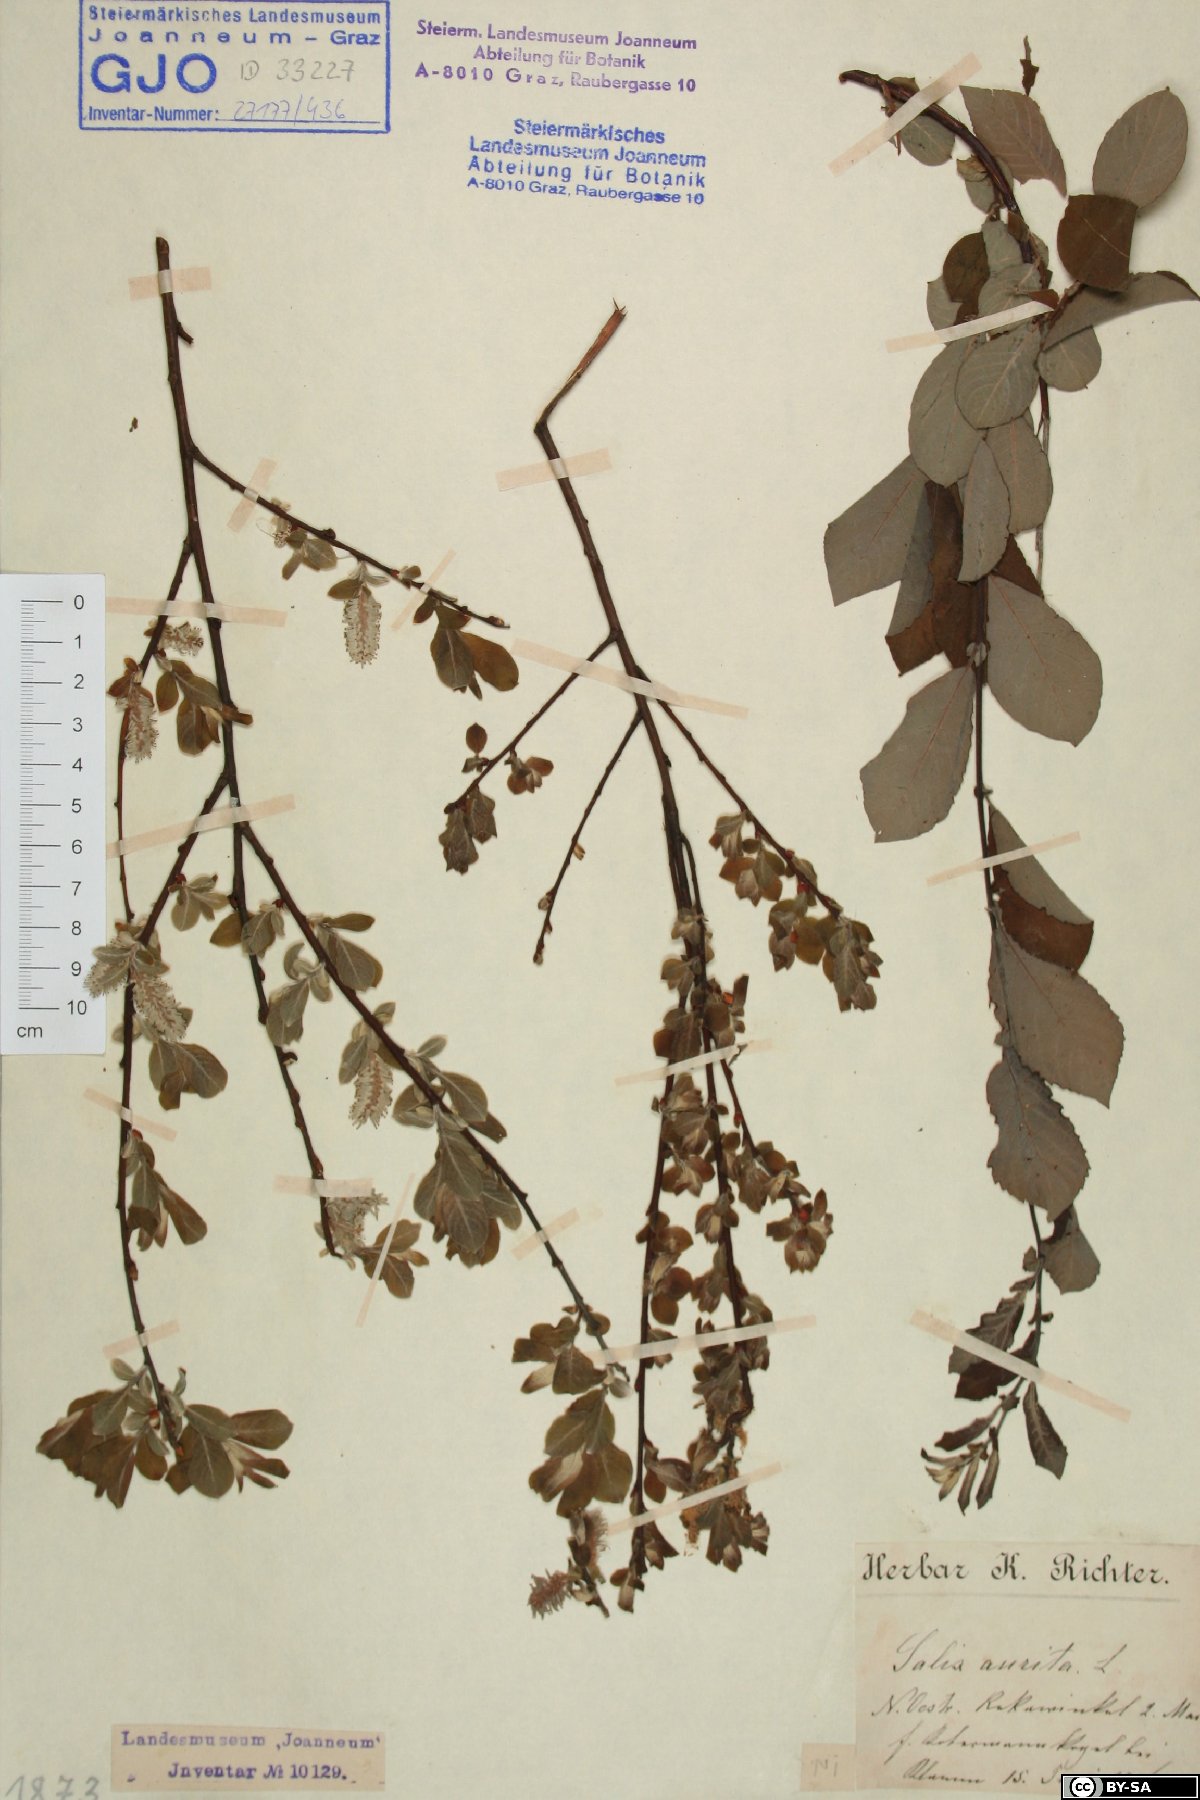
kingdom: Plantae
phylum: Tracheophyta
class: Magnoliopsida
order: Malpighiales
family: Salicaceae
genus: Salix
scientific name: Salix aurita
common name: Eared willow
